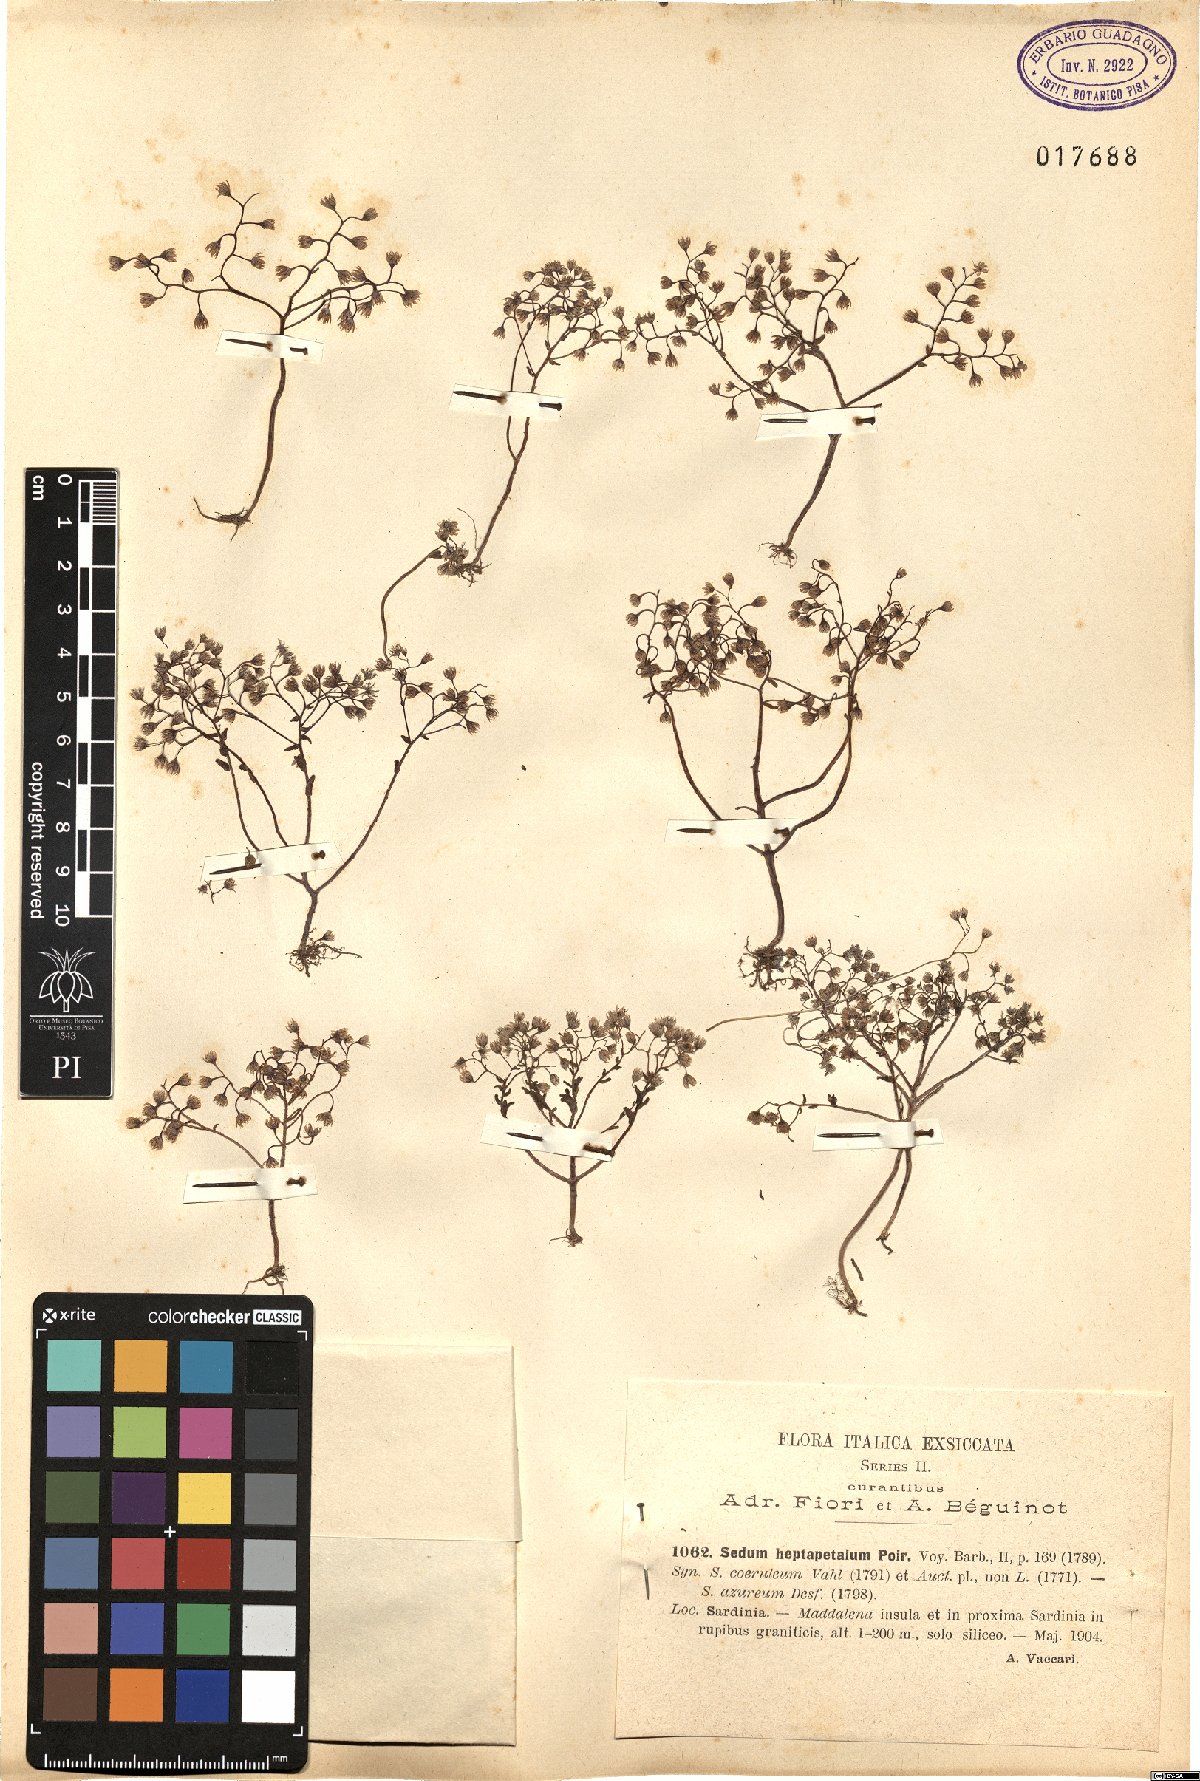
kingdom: Plantae
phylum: Tracheophyta
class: Magnoliopsida
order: Saxifragales
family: Crassulaceae
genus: Sedum
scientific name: Sedum caeruleum
